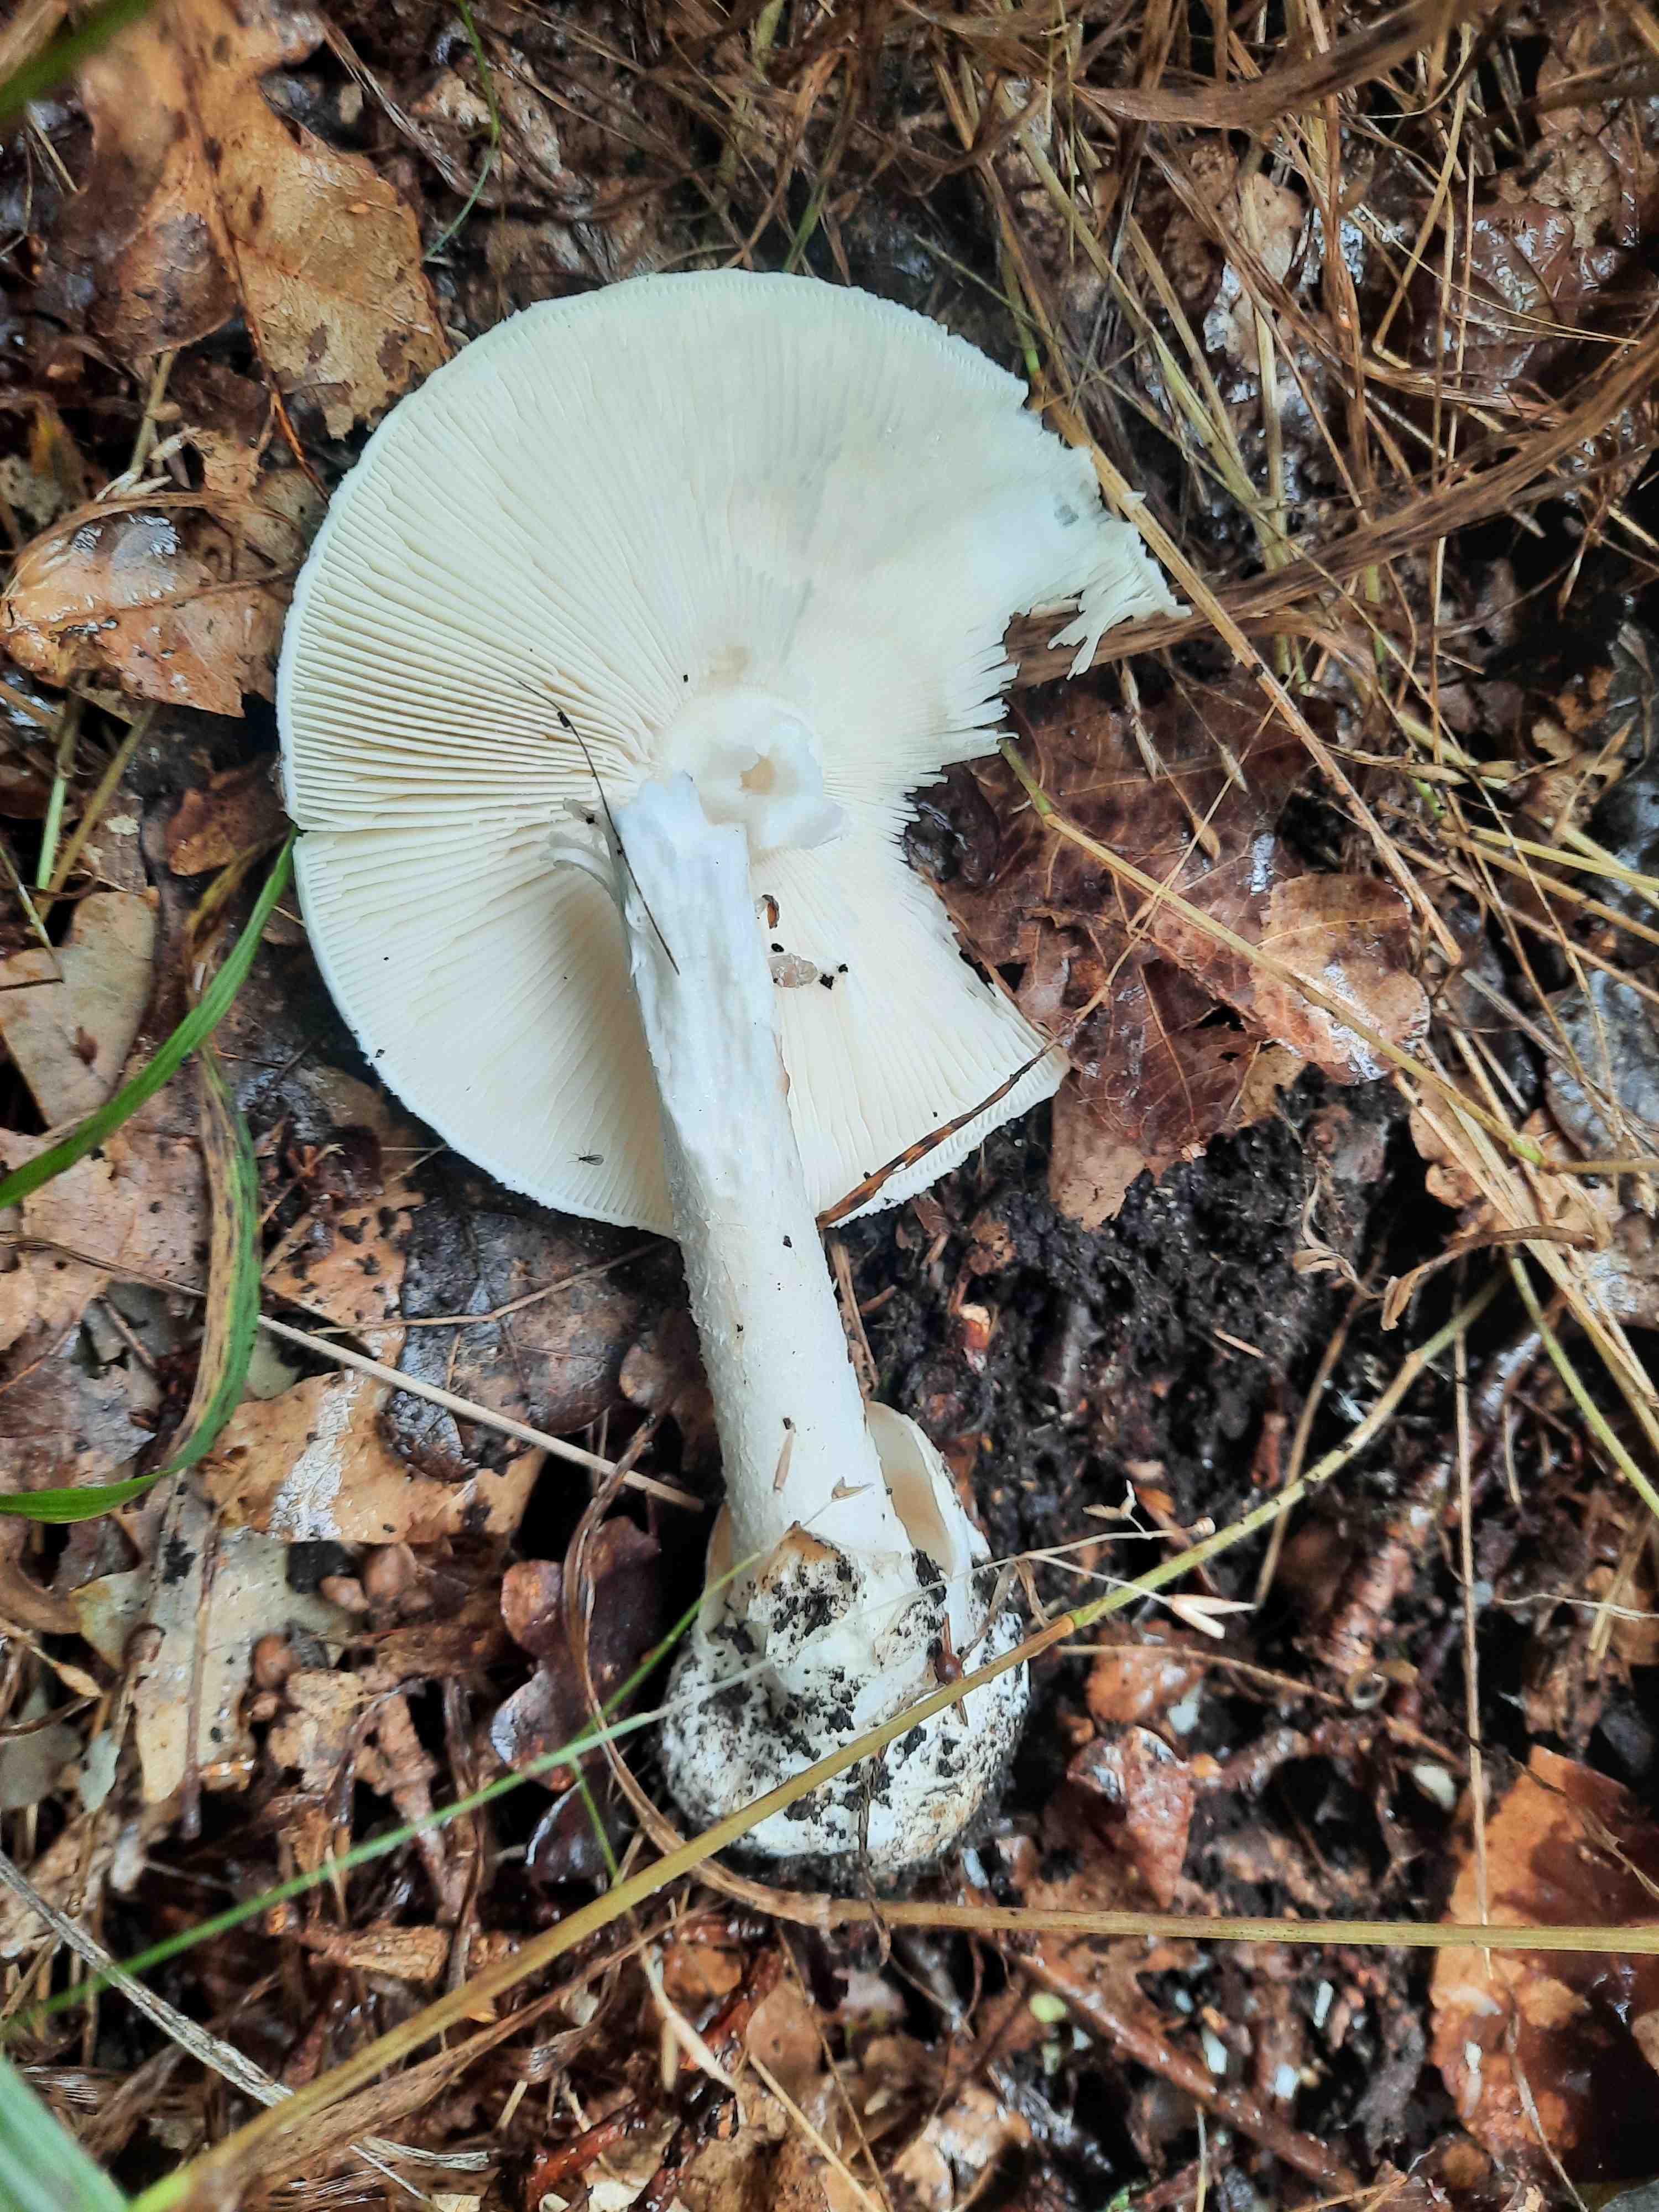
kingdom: Fungi
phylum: Basidiomycota
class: Agaricomycetes
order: Agaricales
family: Amanitaceae
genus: Amanita
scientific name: Amanita virosa
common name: snehvid fluesvamp
